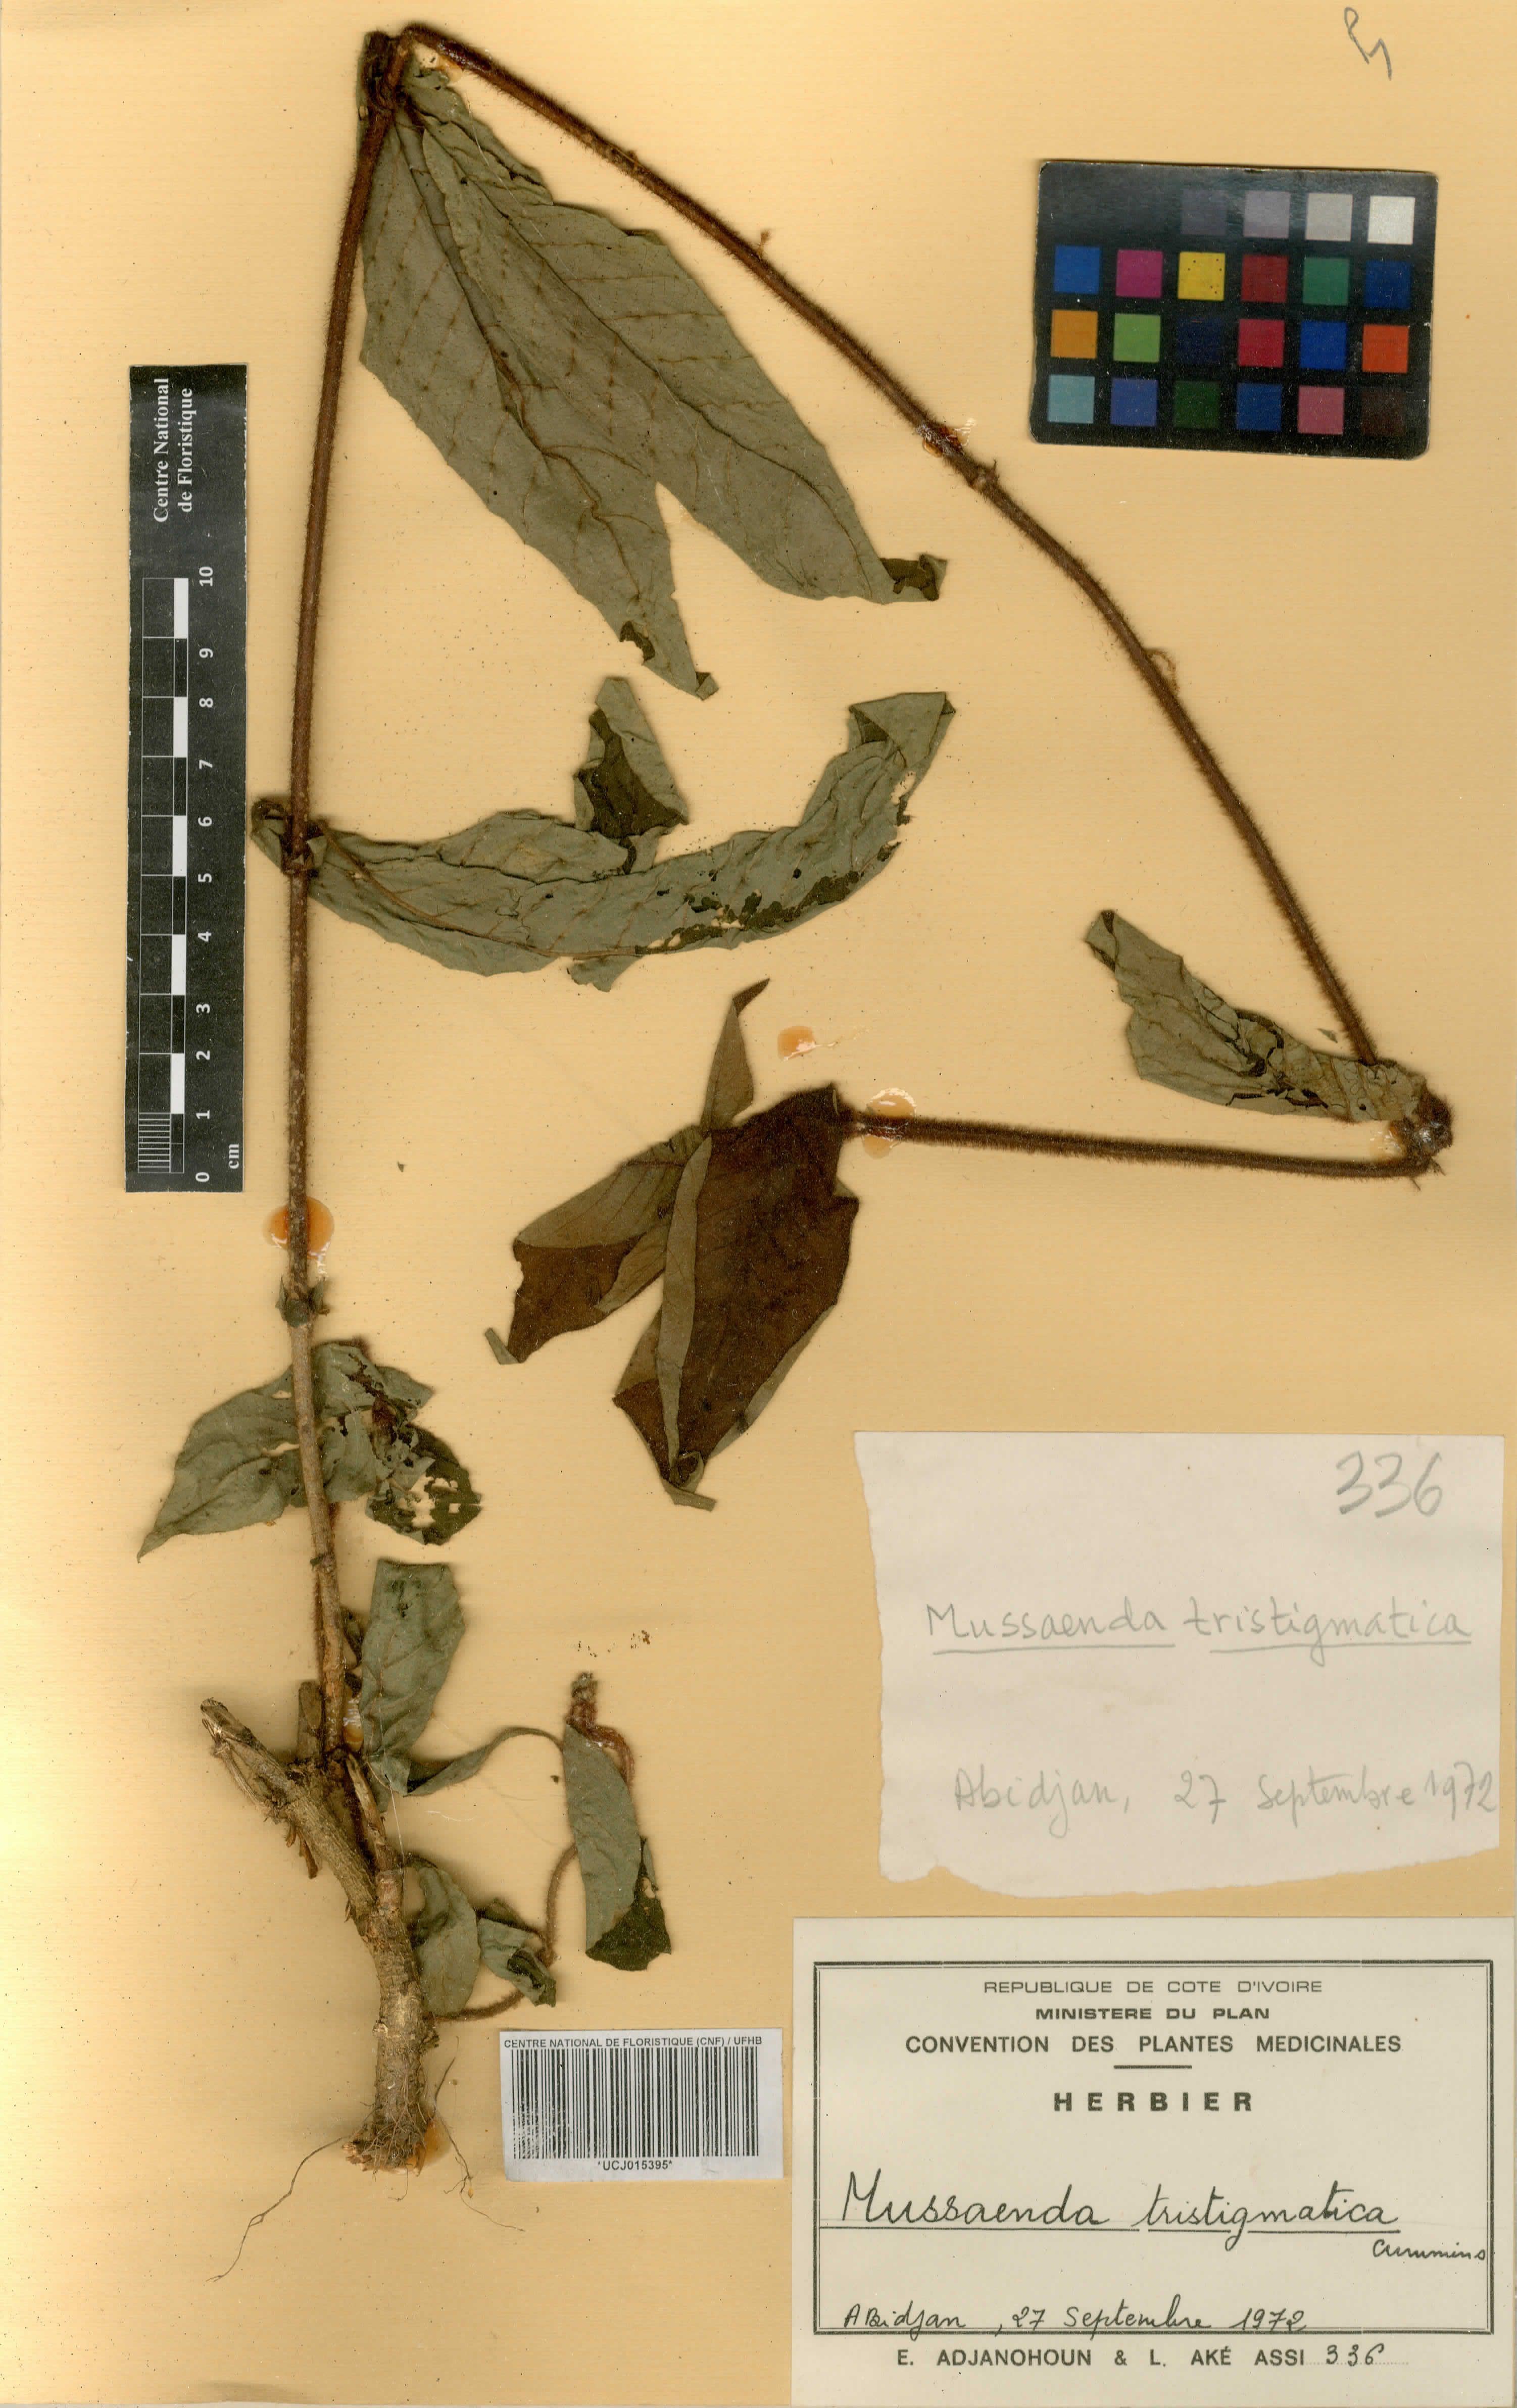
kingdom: Plantae
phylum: Tracheophyta
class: Magnoliopsida
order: Gentianales
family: Rubiaceae
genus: Mussaenda
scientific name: Mussaenda tristigmatica
